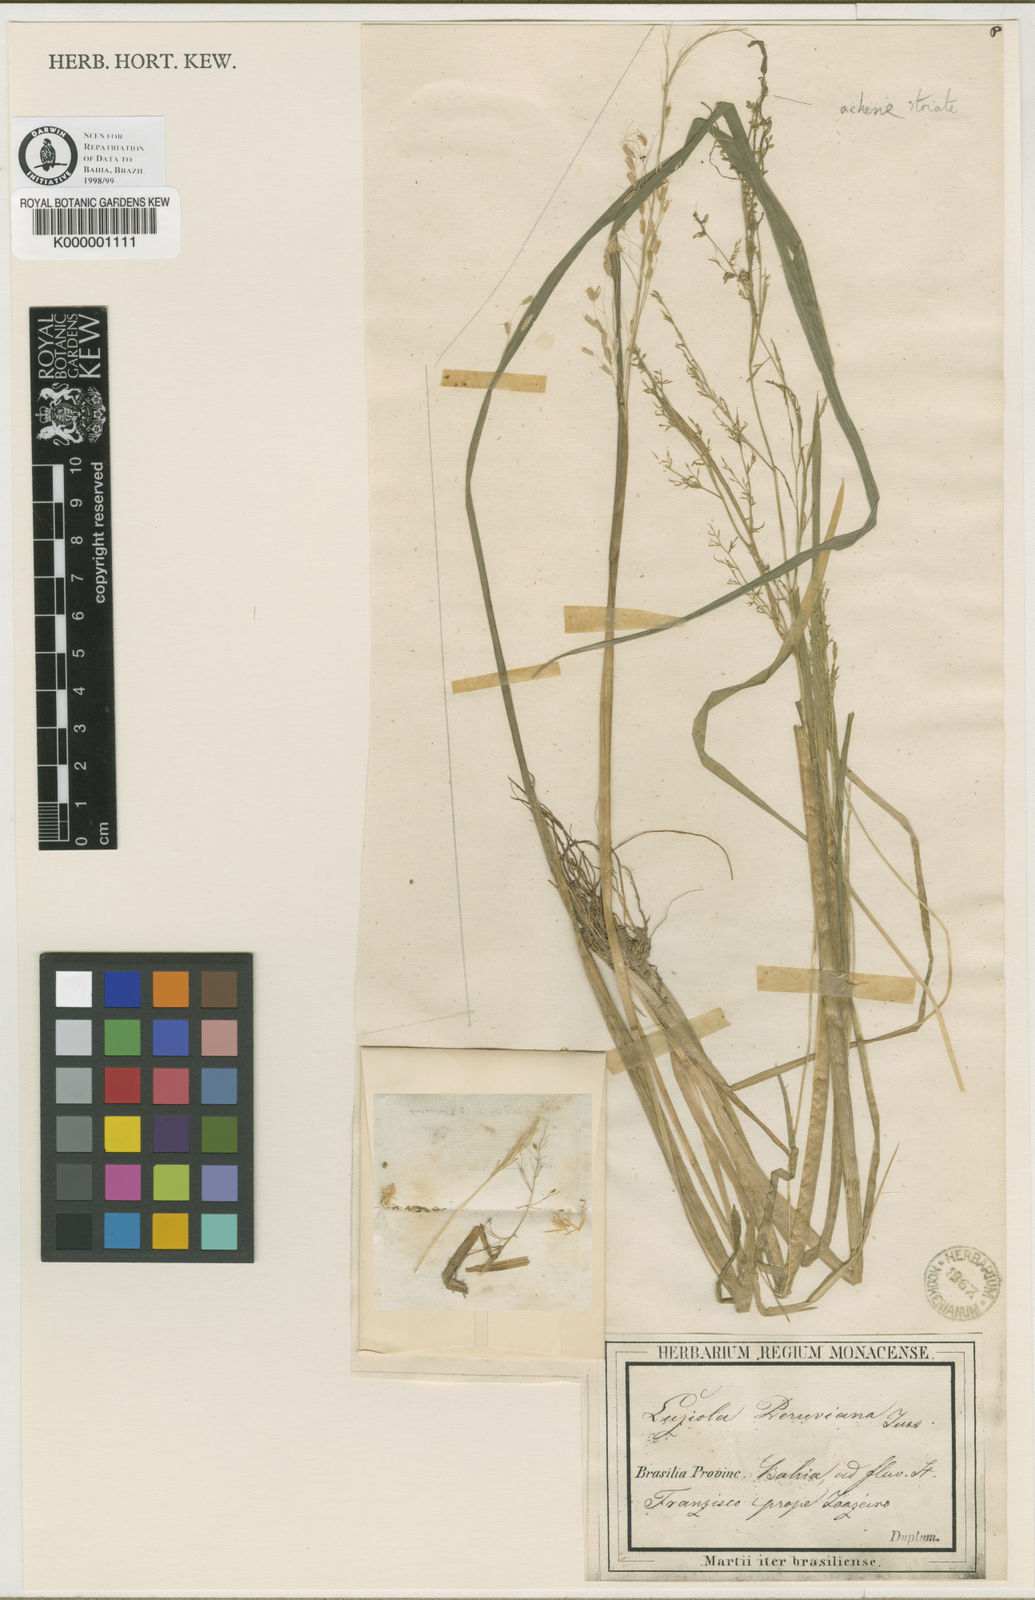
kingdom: Plantae
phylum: Tracheophyta
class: Liliopsida
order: Poales
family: Poaceae
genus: Luziola
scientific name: Luziola brasiliana
